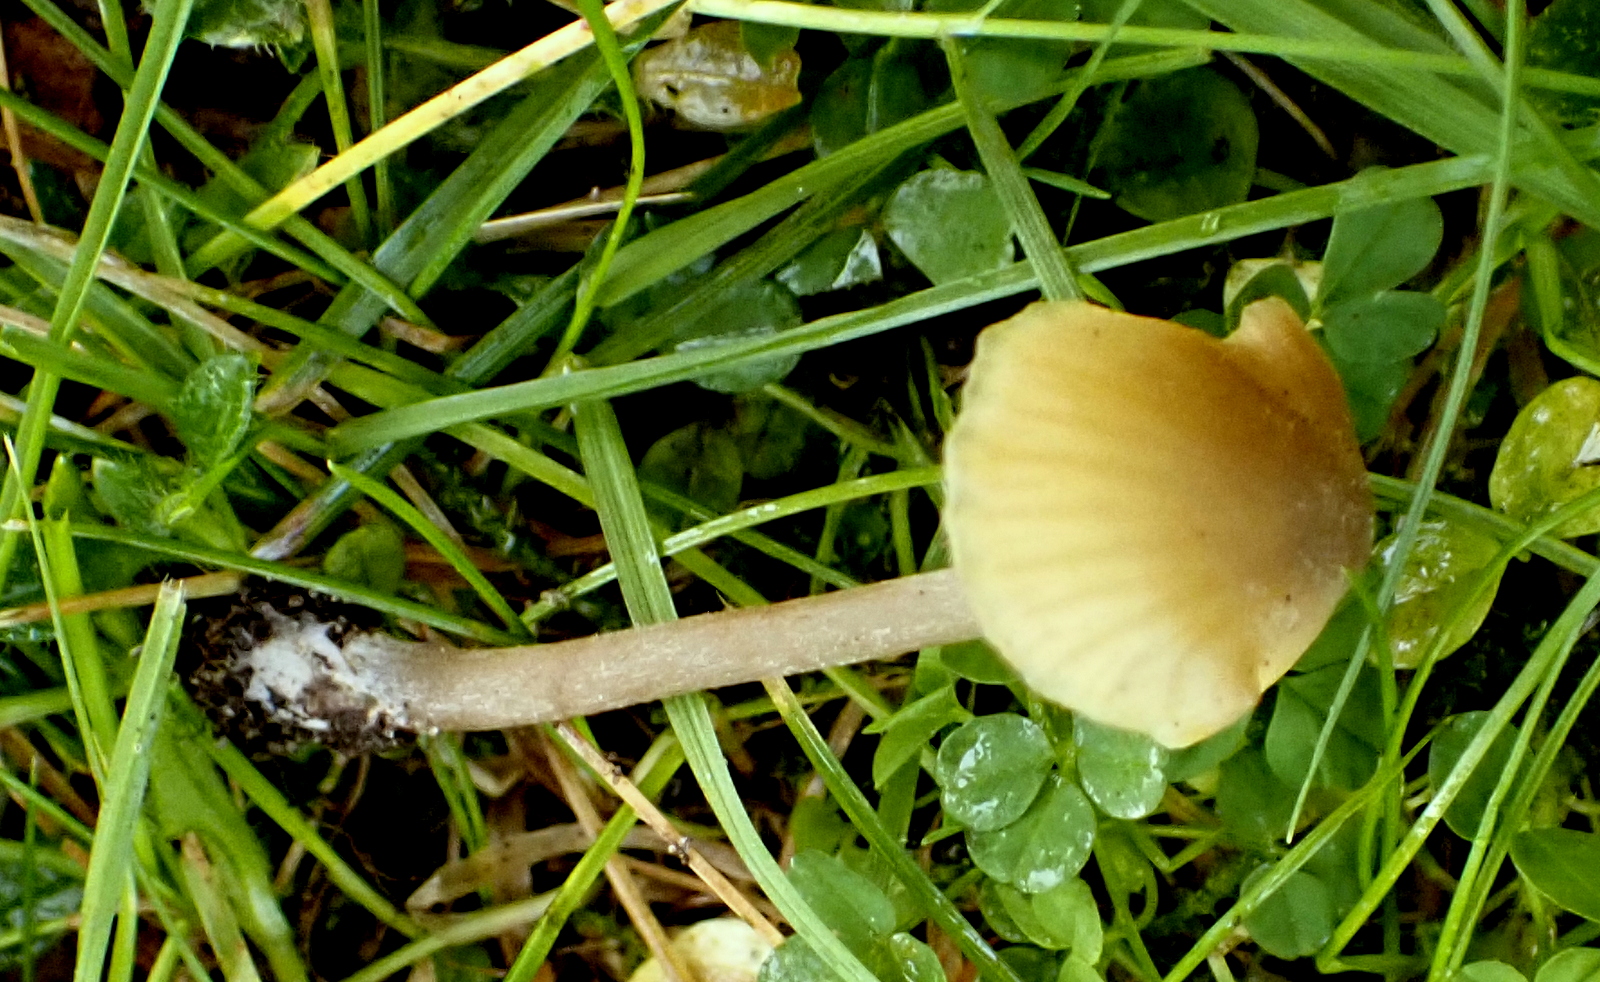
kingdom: Fungi
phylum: Basidiomycota
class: Agaricomycetes
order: Agaricales
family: Entolomataceae
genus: Entoloma
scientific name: Entoloma pleopodium
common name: duftende rødblad
